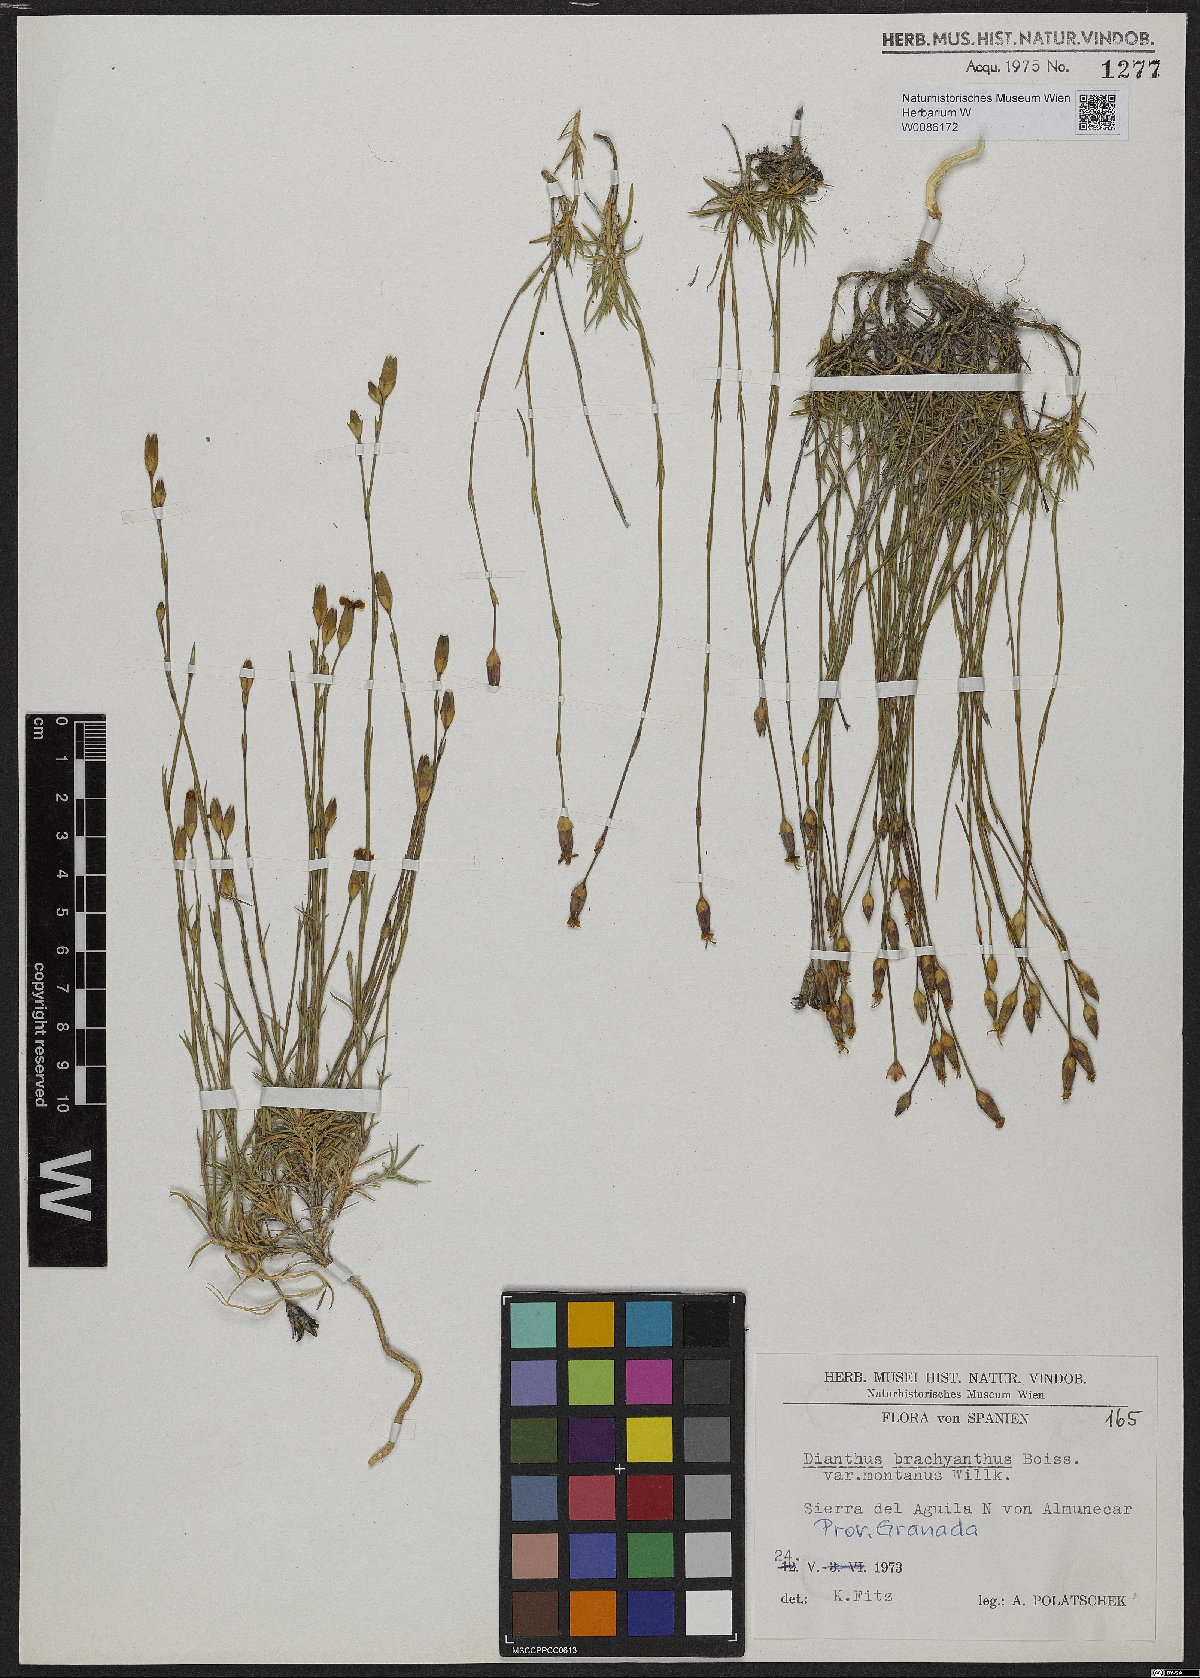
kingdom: Plantae
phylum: Tracheophyta
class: Magnoliopsida
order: Caryophyllales
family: Caryophyllaceae
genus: Dianthus
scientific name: Dianthus subacaulis
